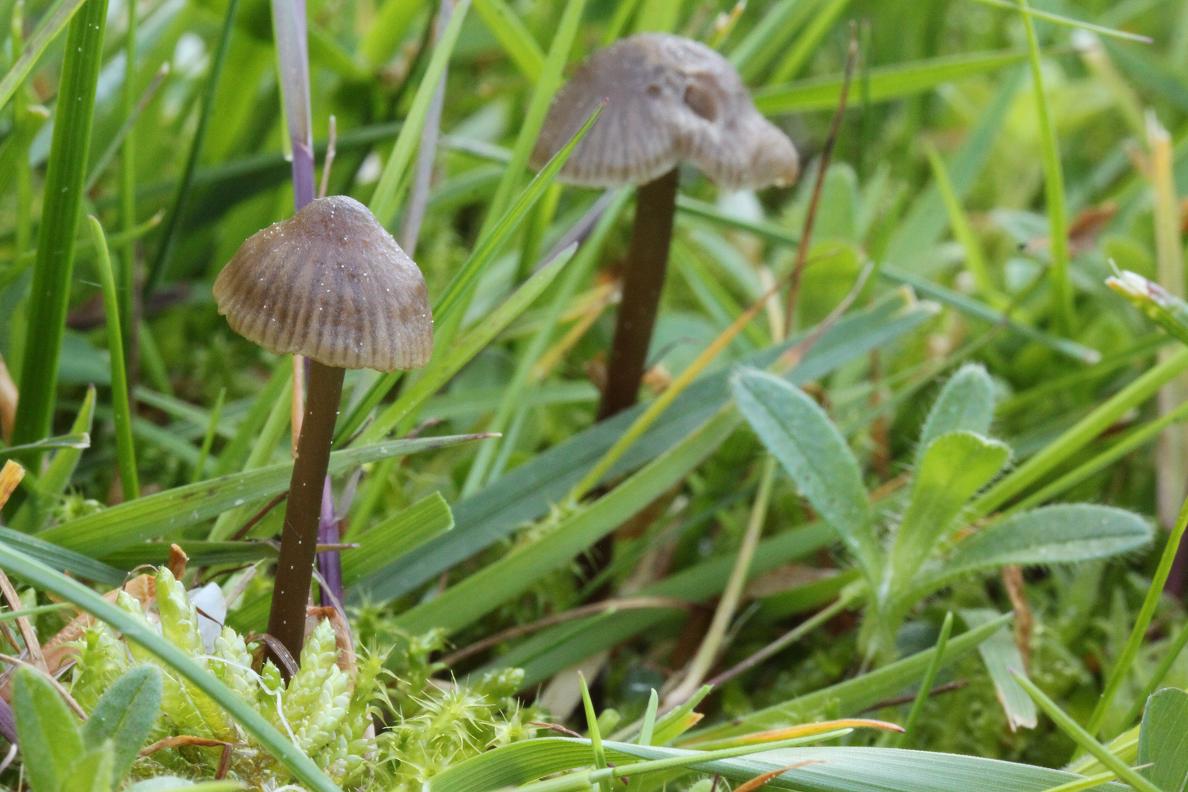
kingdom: Fungi
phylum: Basidiomycota
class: Agaricomycetes
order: Agaricales
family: Entolomataceae
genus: Entoloma
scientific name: Entoloma
